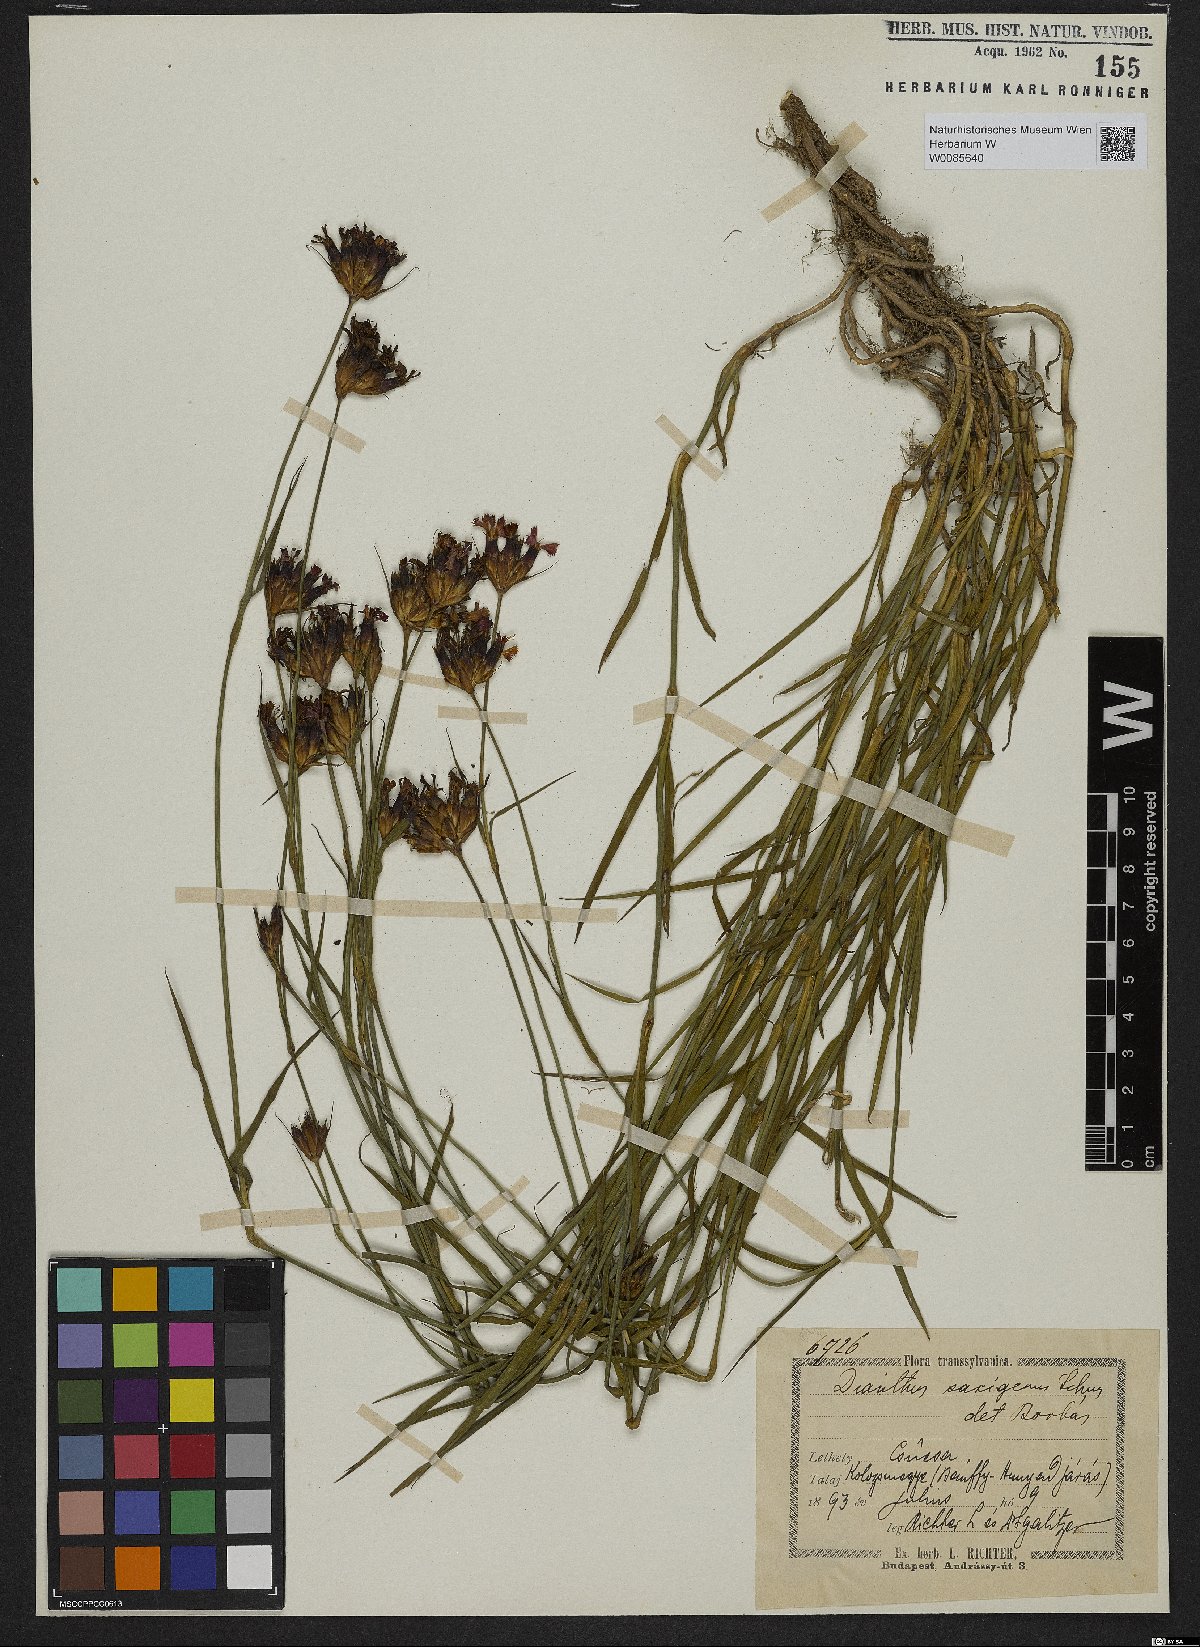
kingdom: Plantae
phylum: Tracheophyta
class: Magnoliopsida
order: Caryophyllales
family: Caryophyllaceae
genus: Dianthus
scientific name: Dianthus
